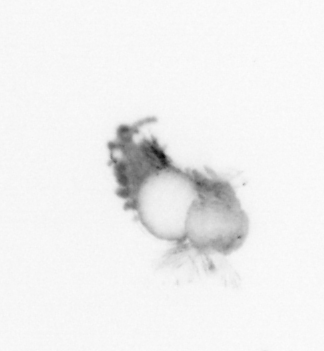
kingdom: Animalia
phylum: Annelida
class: Polychaeta
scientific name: Polychaeta
